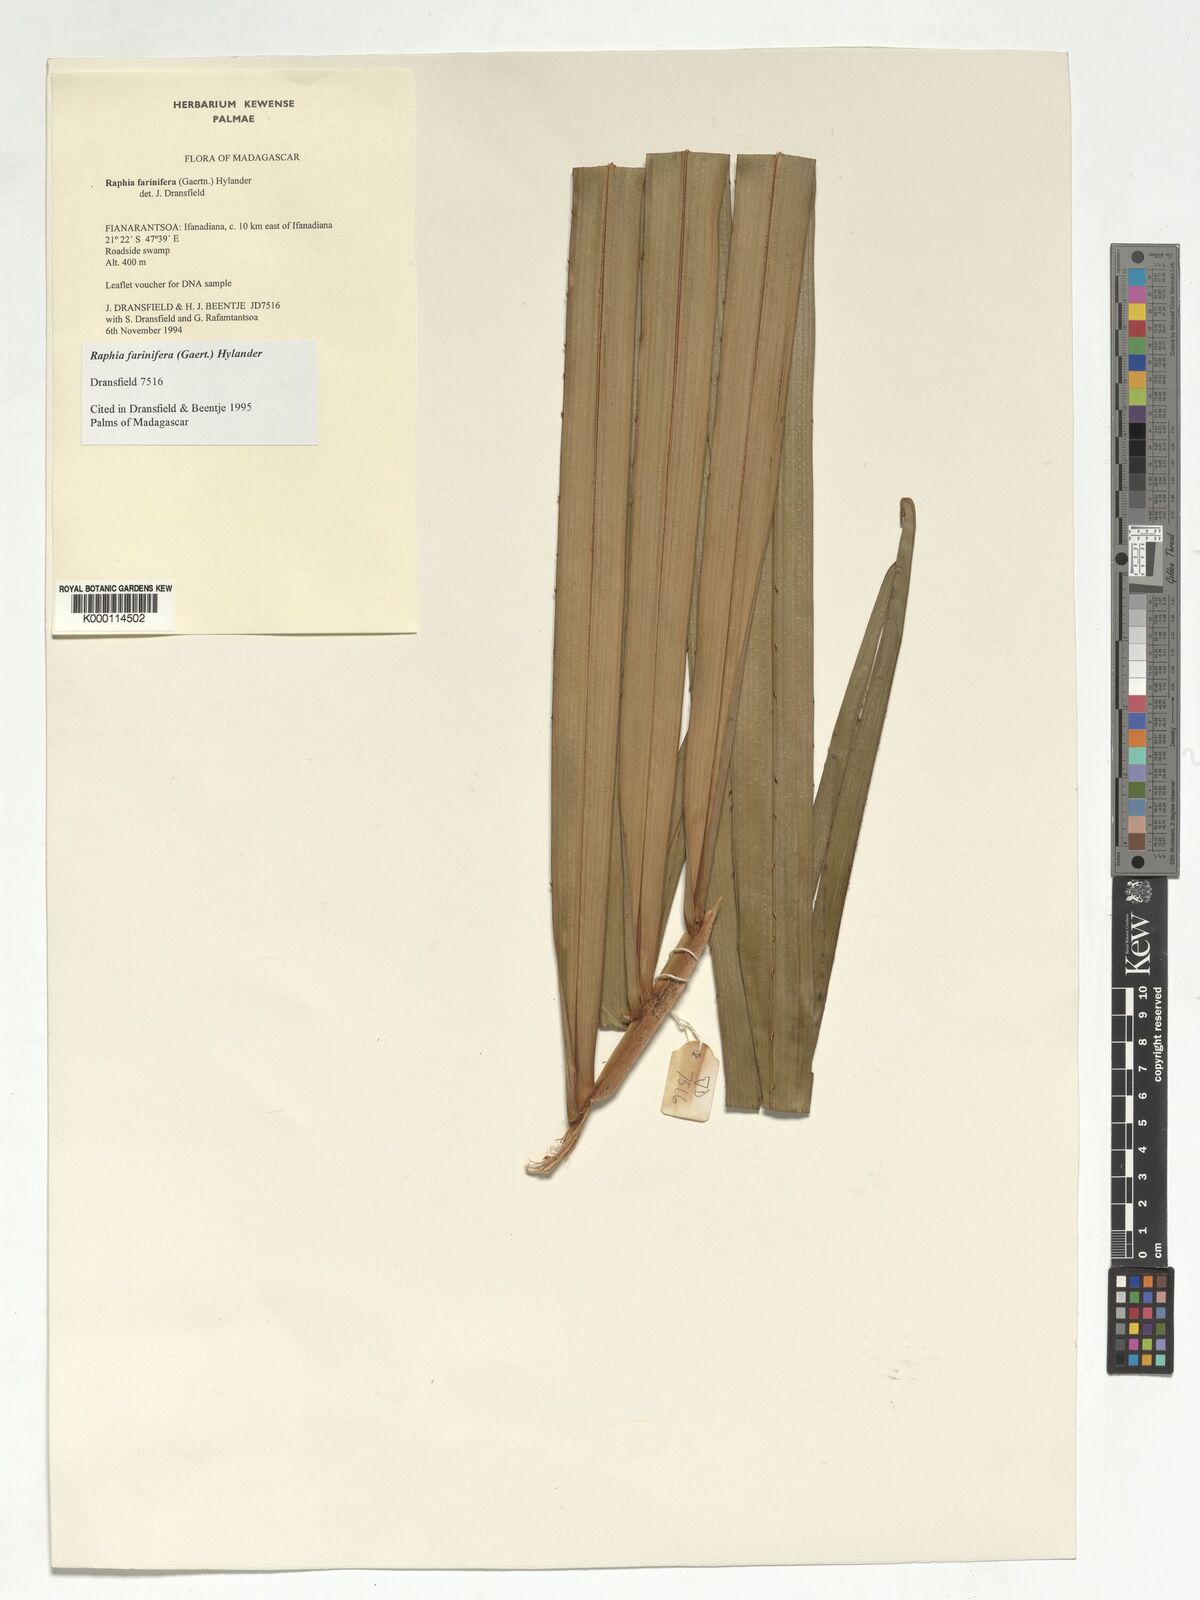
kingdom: Plantae
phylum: Tracheophyta
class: Liliopsida
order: Arecales
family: Arecaceae
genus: Raphia
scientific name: Raphia farinifera
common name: Raphia palm
